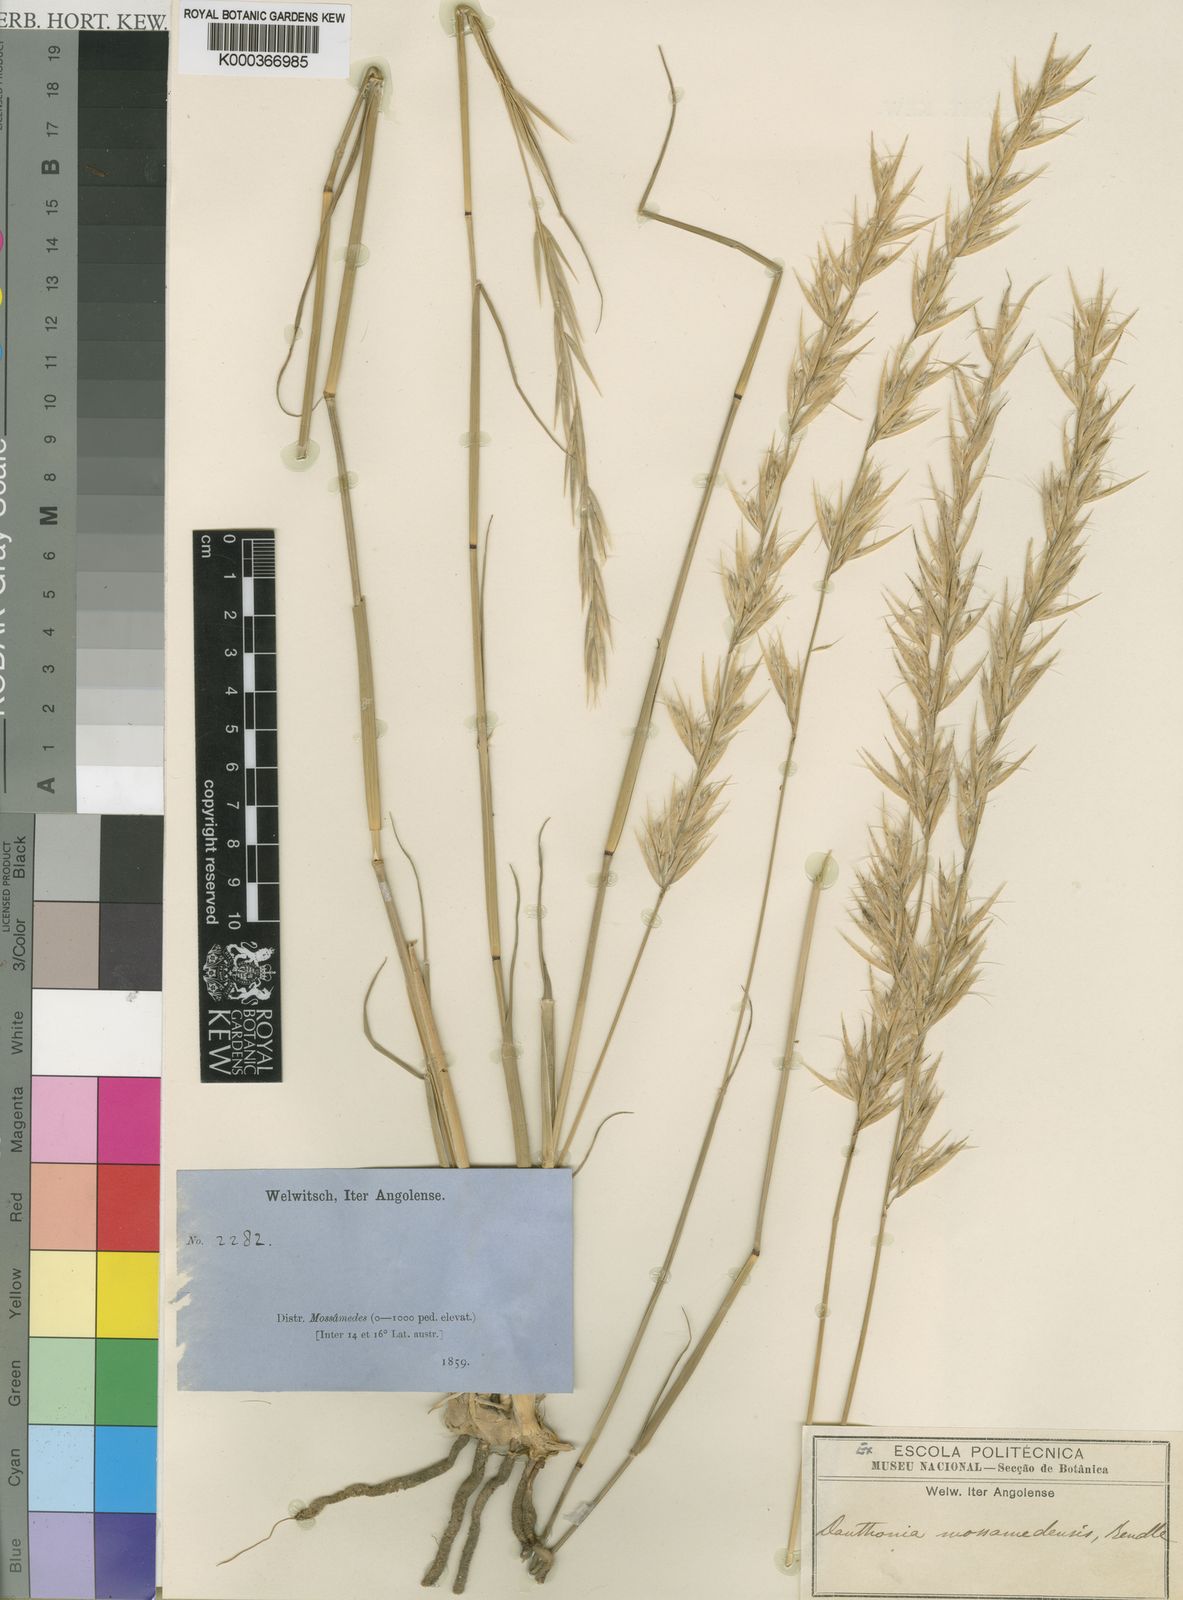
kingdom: Plantae
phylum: Tracheophyta
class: Liliopsida
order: Poales
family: Poaceae
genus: Centropodia
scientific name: Centropodia mossamedensis
